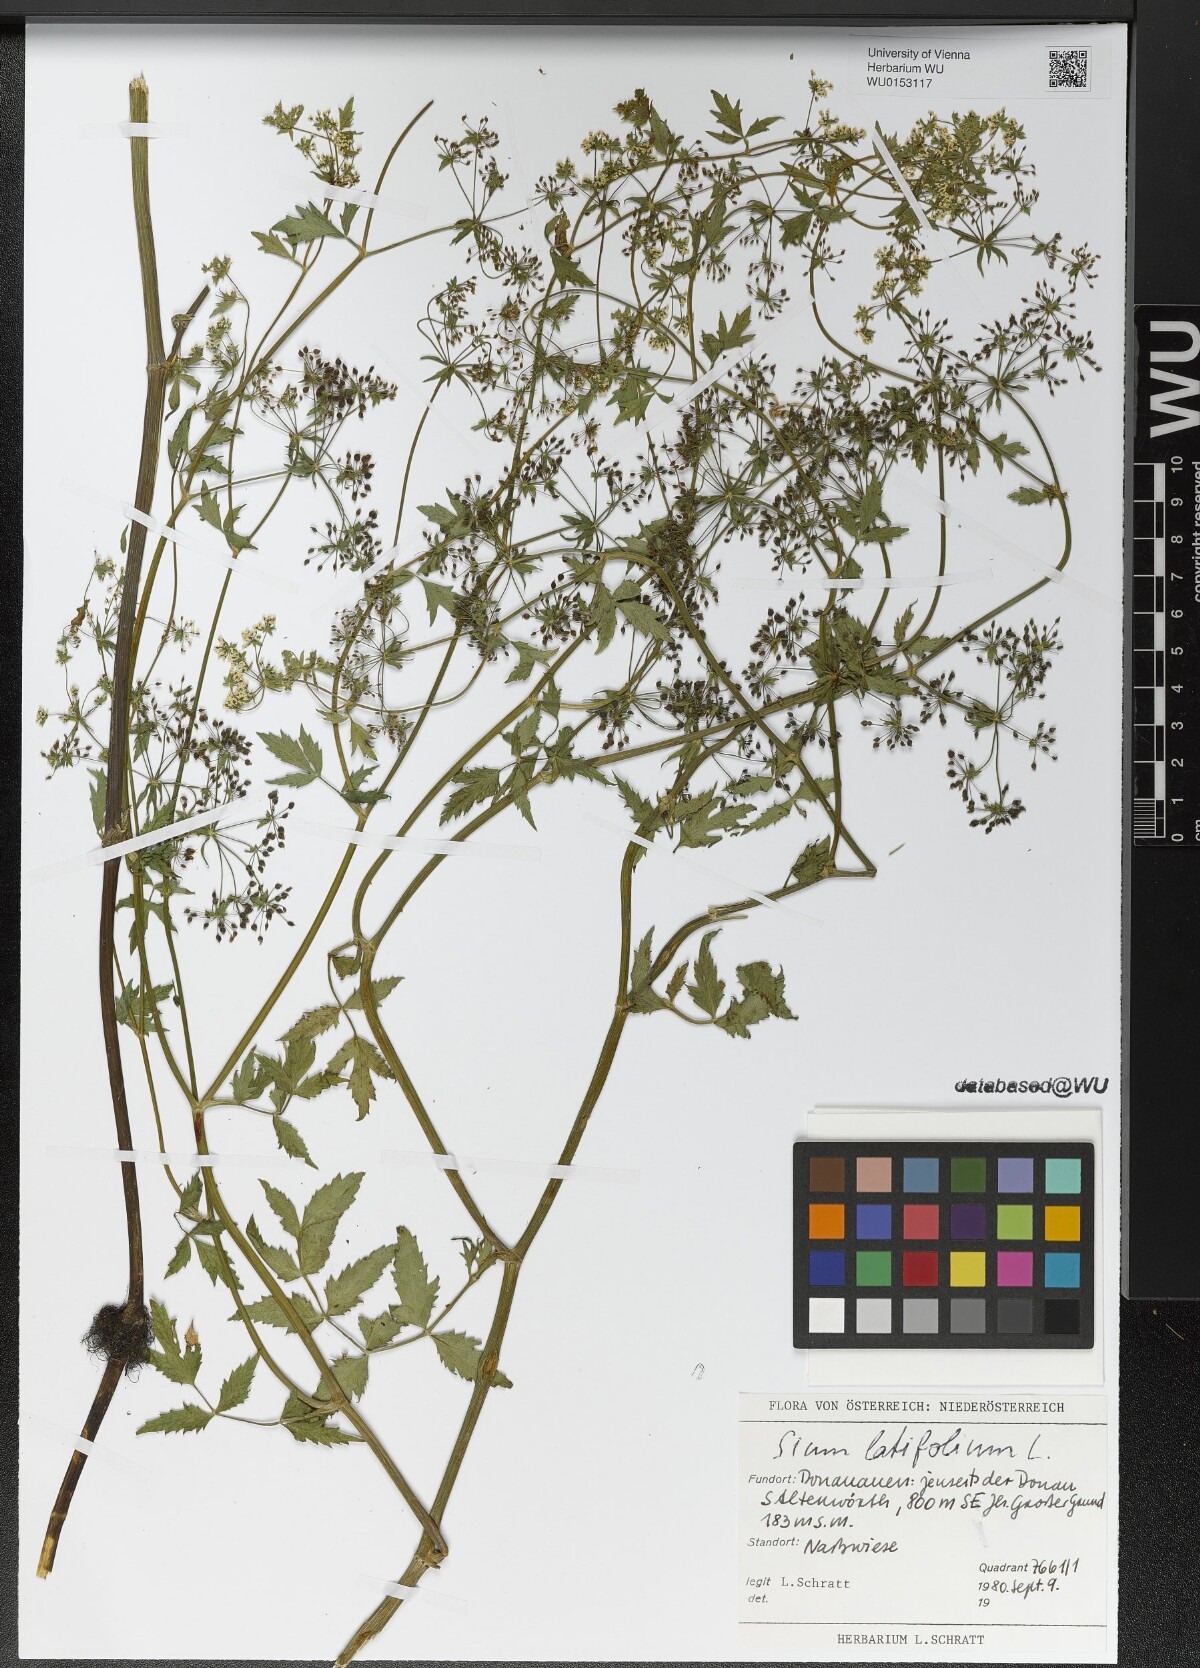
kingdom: Plantae
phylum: Tracheophyta
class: Magnoliopsida
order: Apiales
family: Apiaceae
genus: Sium
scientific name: Sium latifolium
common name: Greater water-parsnip
